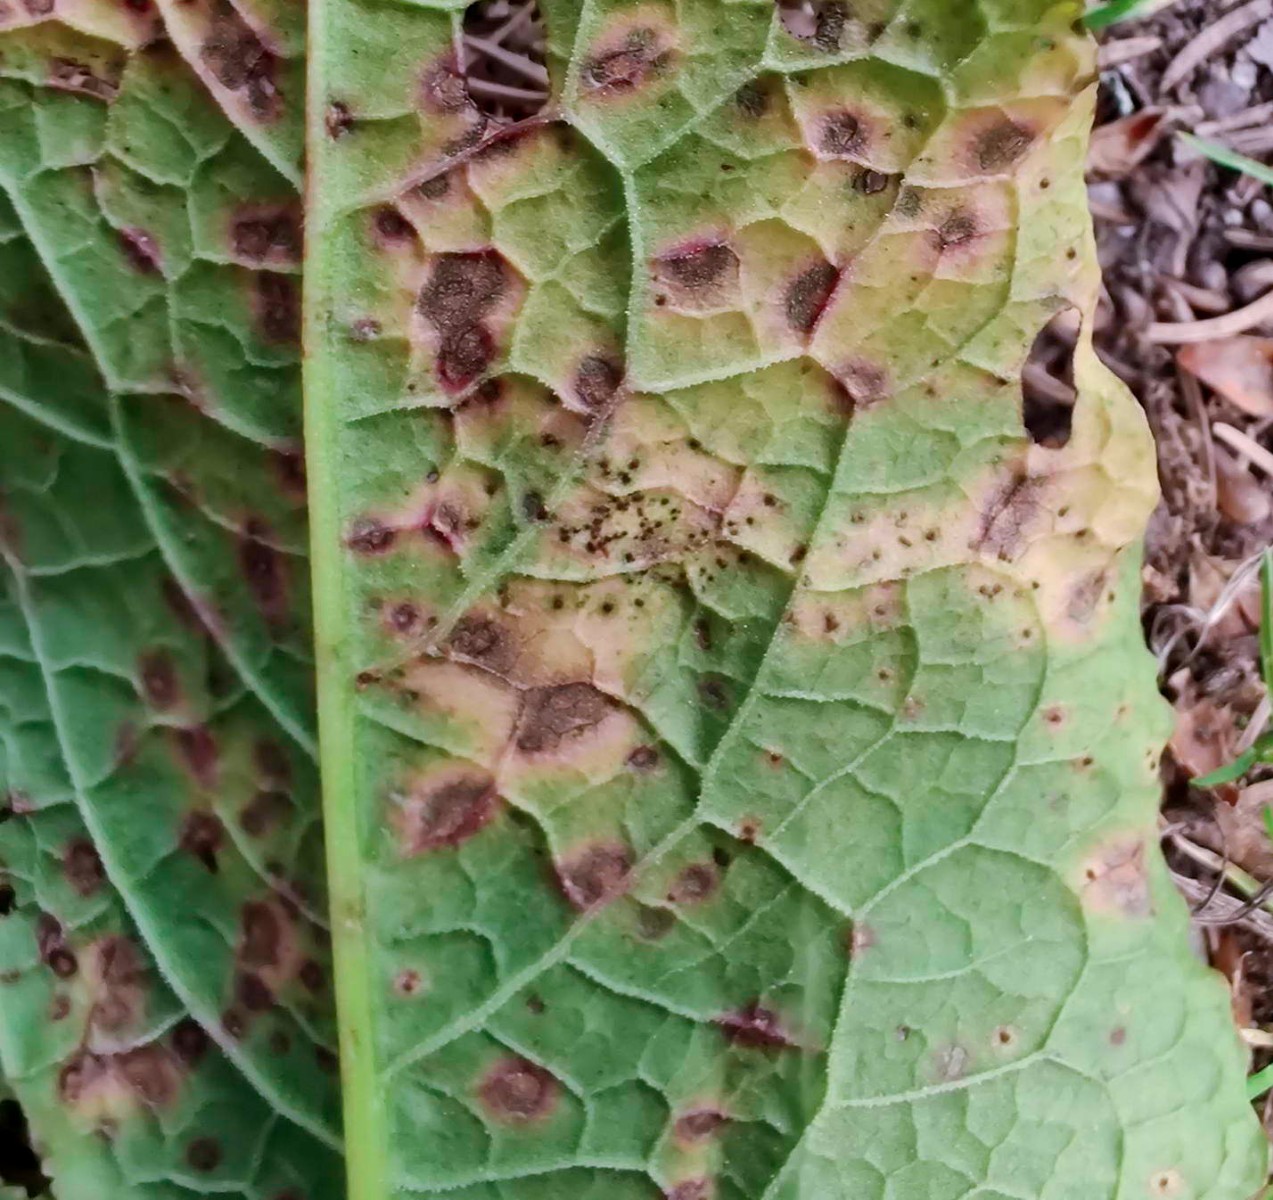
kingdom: Fungi
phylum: Basidiomycota
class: Pucciniomycetes
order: Pucciniales
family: Pucciniaceae
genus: Uromyces
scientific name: Uromyces rumicis
